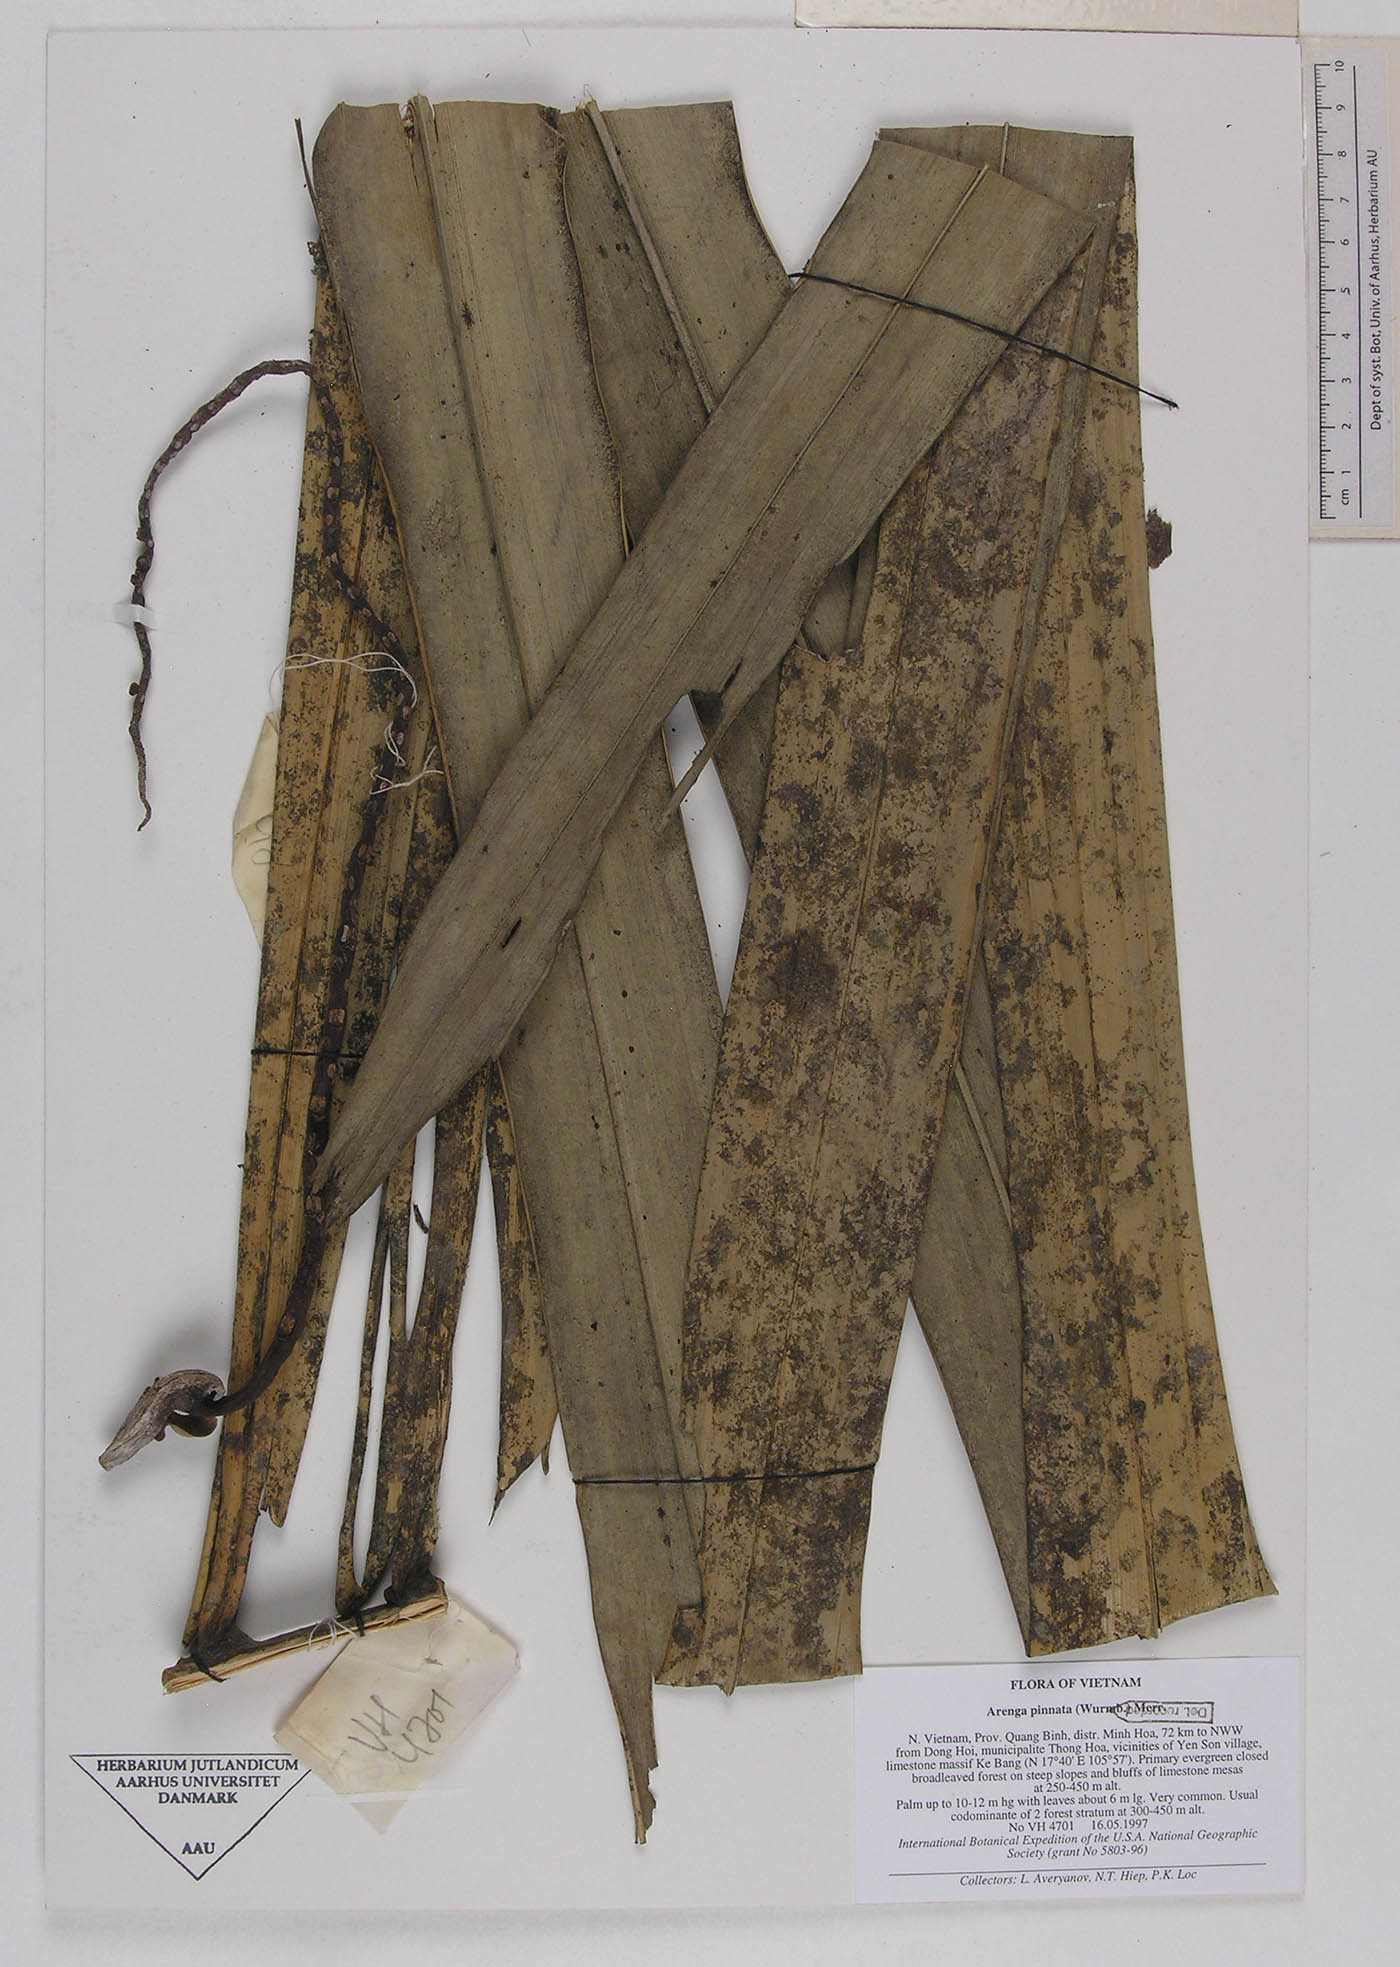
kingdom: Plantae
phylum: Tracheophyta
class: Liliopsida
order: Arecales
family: Arecaceae
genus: Arenga
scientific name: Arenga pinnata
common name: Black-fiber palm
